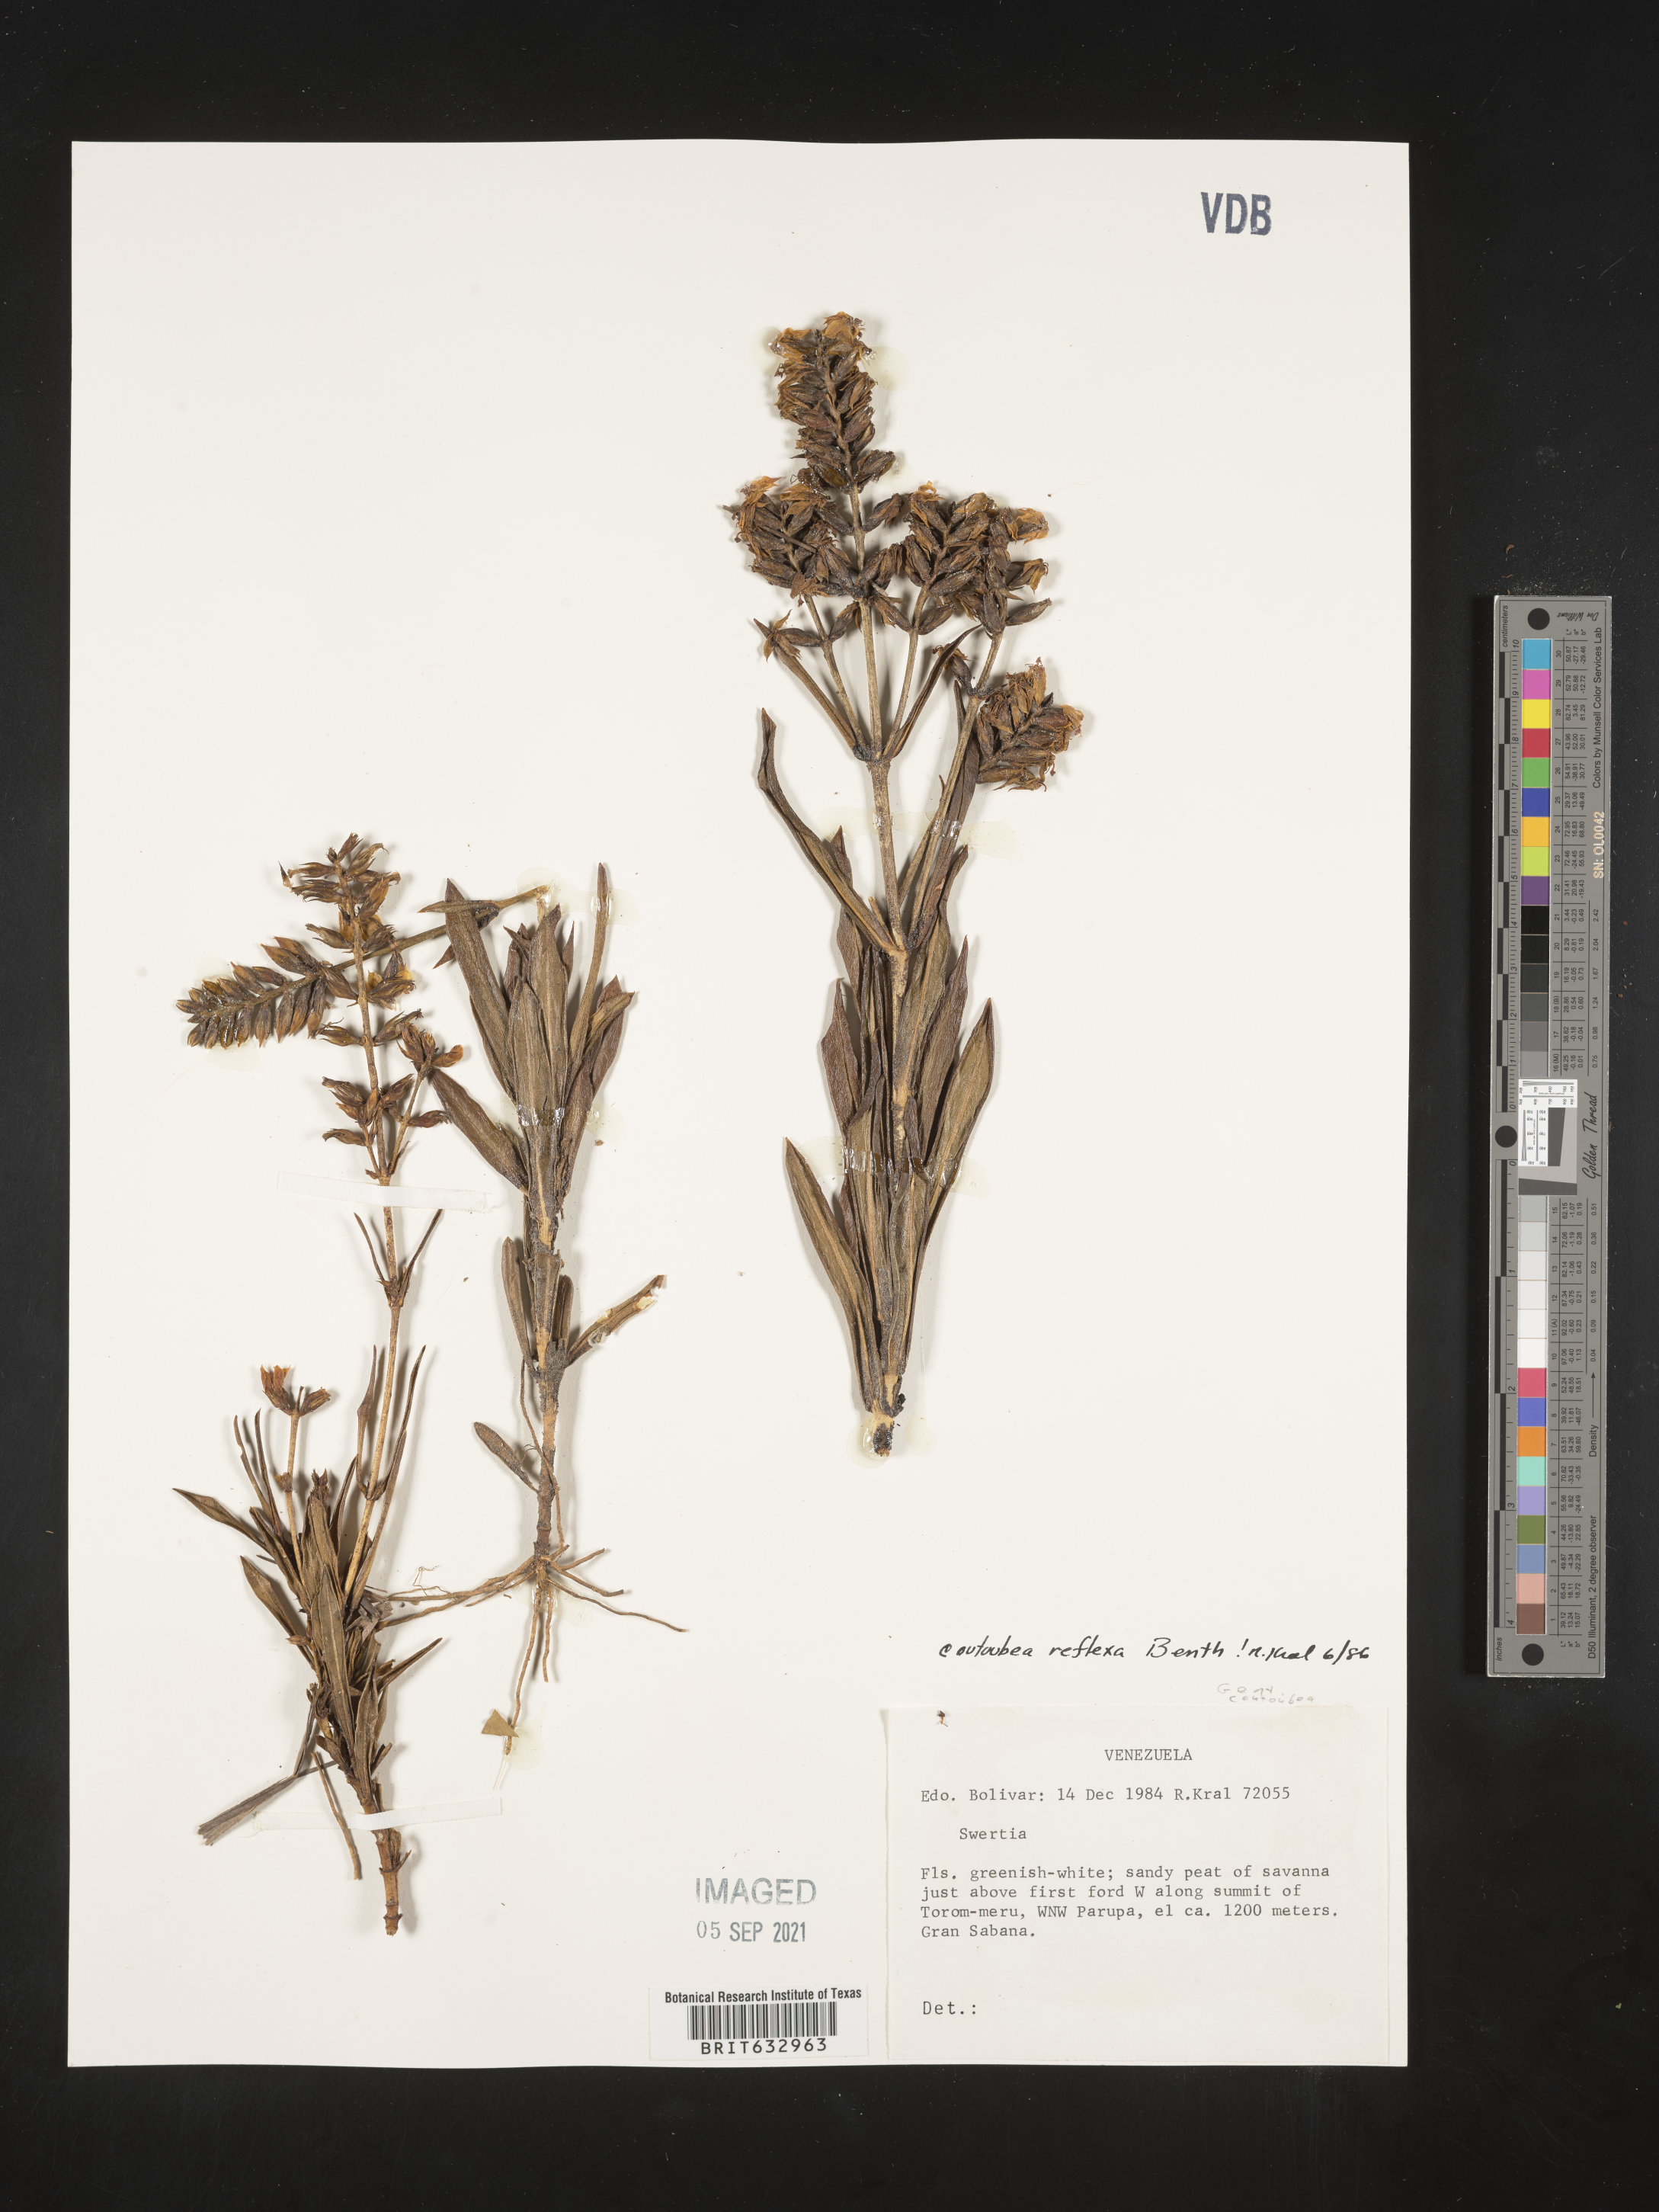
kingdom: Plantae
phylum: Tracheophyta
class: Magnoliopsida
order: Gentianales
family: Gentianaceae
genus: Coutoubea
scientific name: Coutoubea
